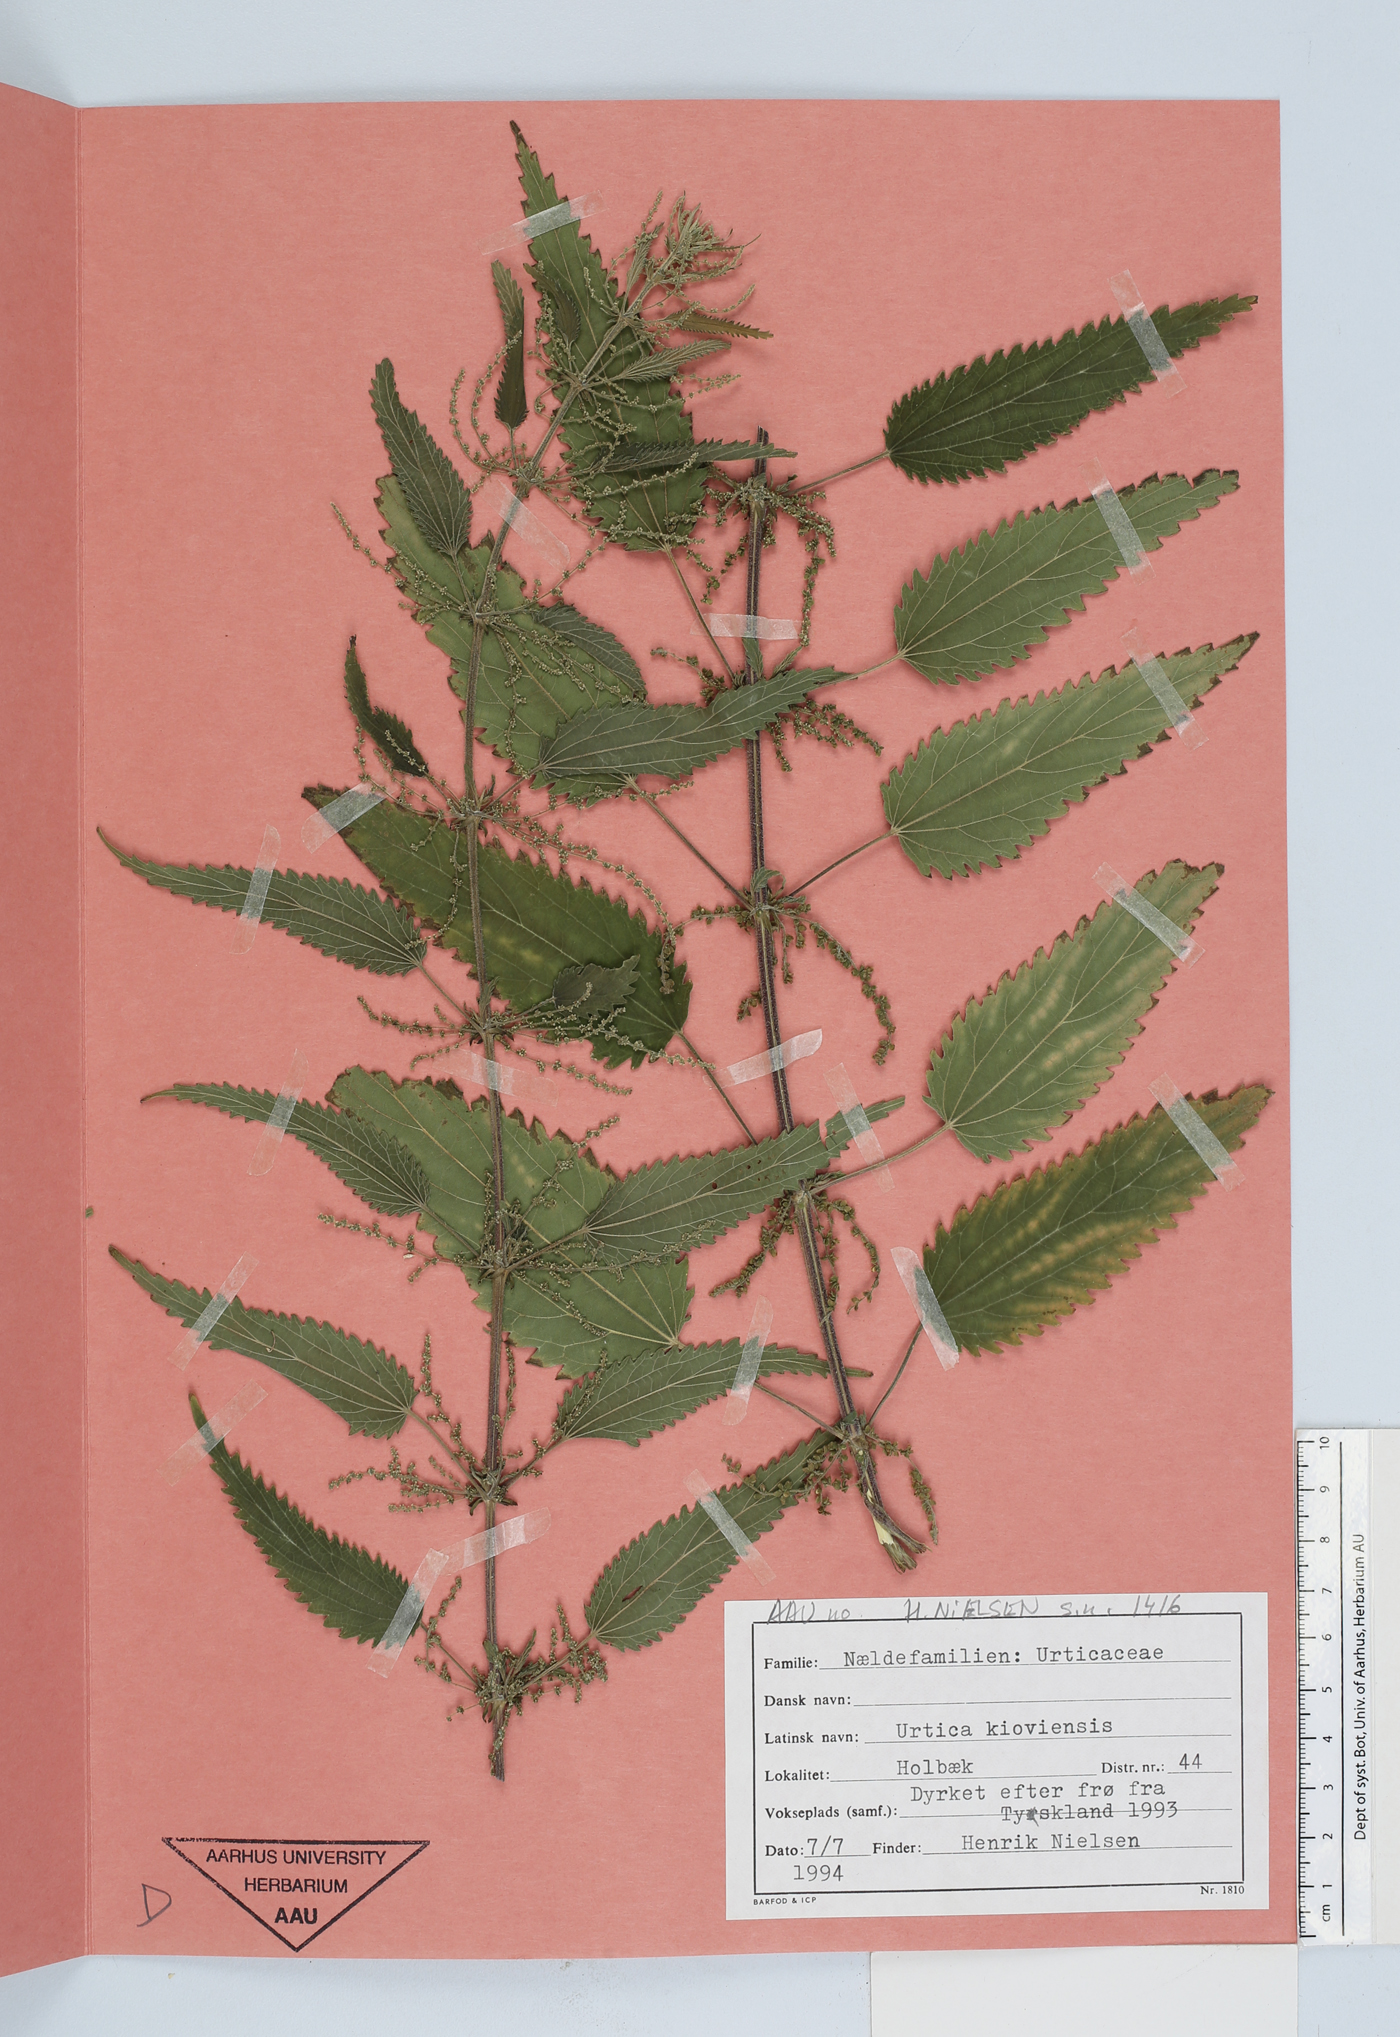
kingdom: Plantae
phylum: Tracheophyta
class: Magnoliopsida
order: Rosales
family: Urticaceae
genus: Urtica
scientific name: Urtica kioviensis
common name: Kievan nettle
